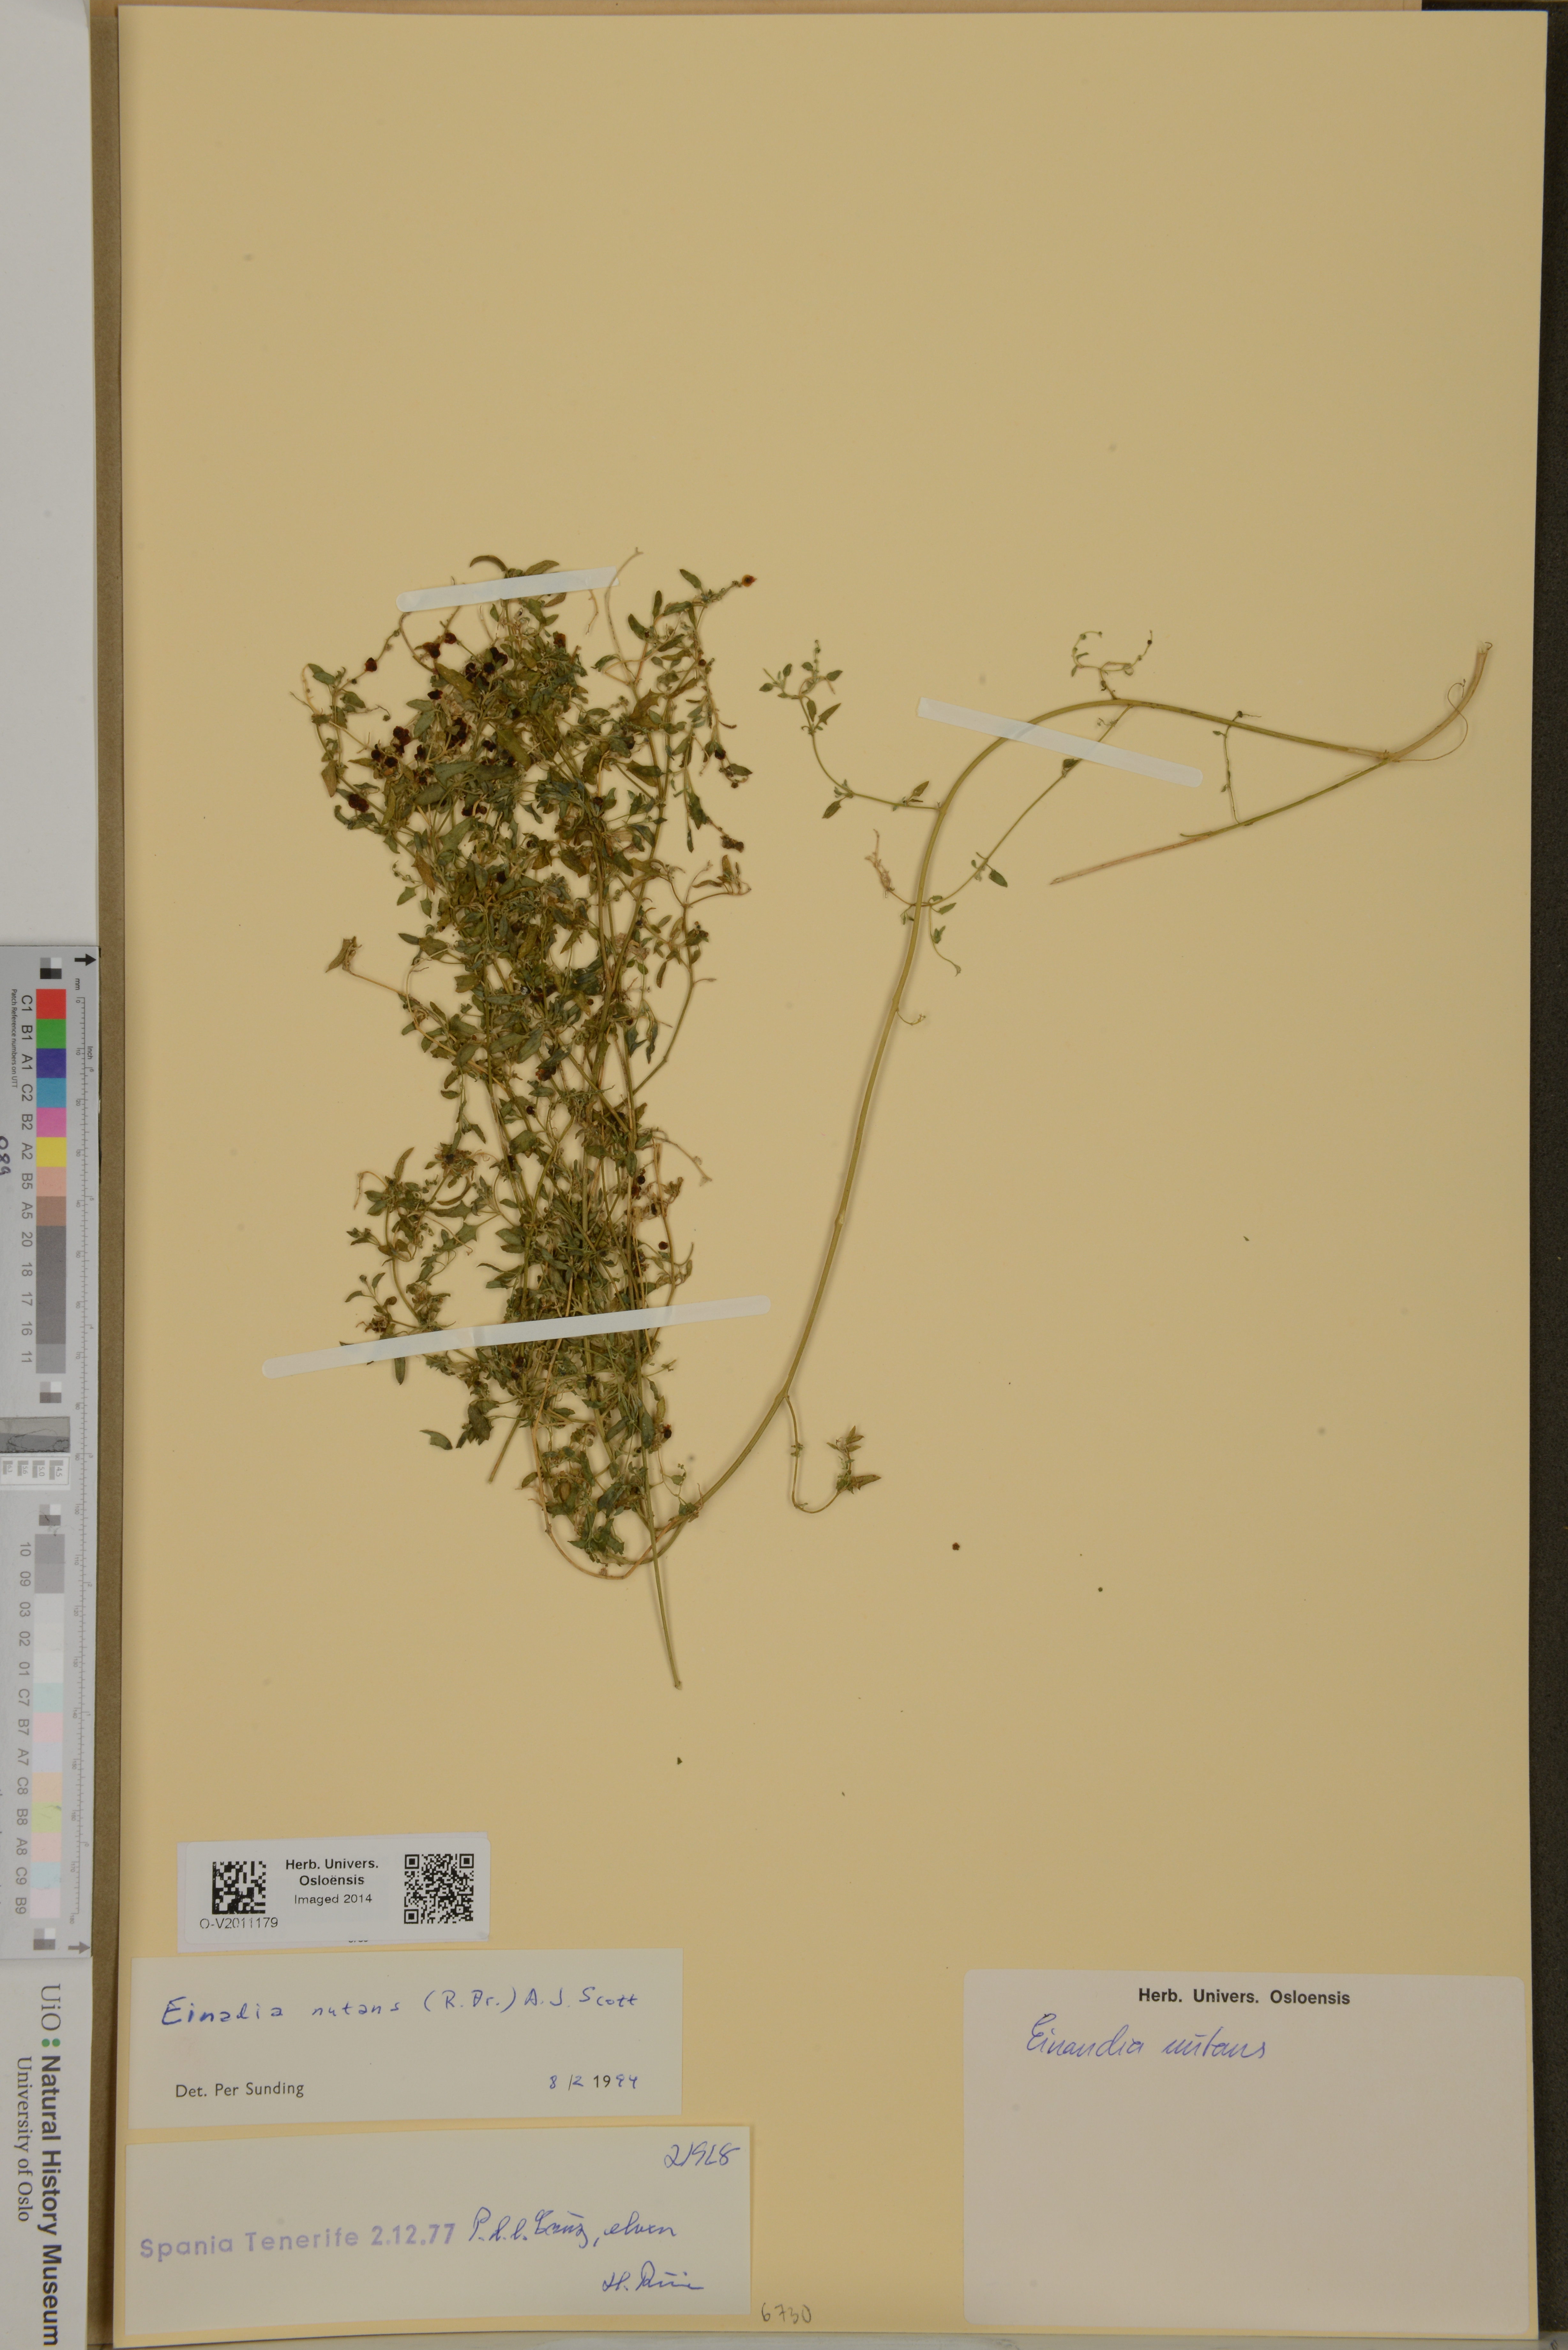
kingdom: Plantae
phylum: Tracheophyta
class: Magnoliopsida
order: Caryophyllales
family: Amaranthaceae
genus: Chenopodium
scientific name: Chenopodium nutans
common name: Climbing-saltbush
